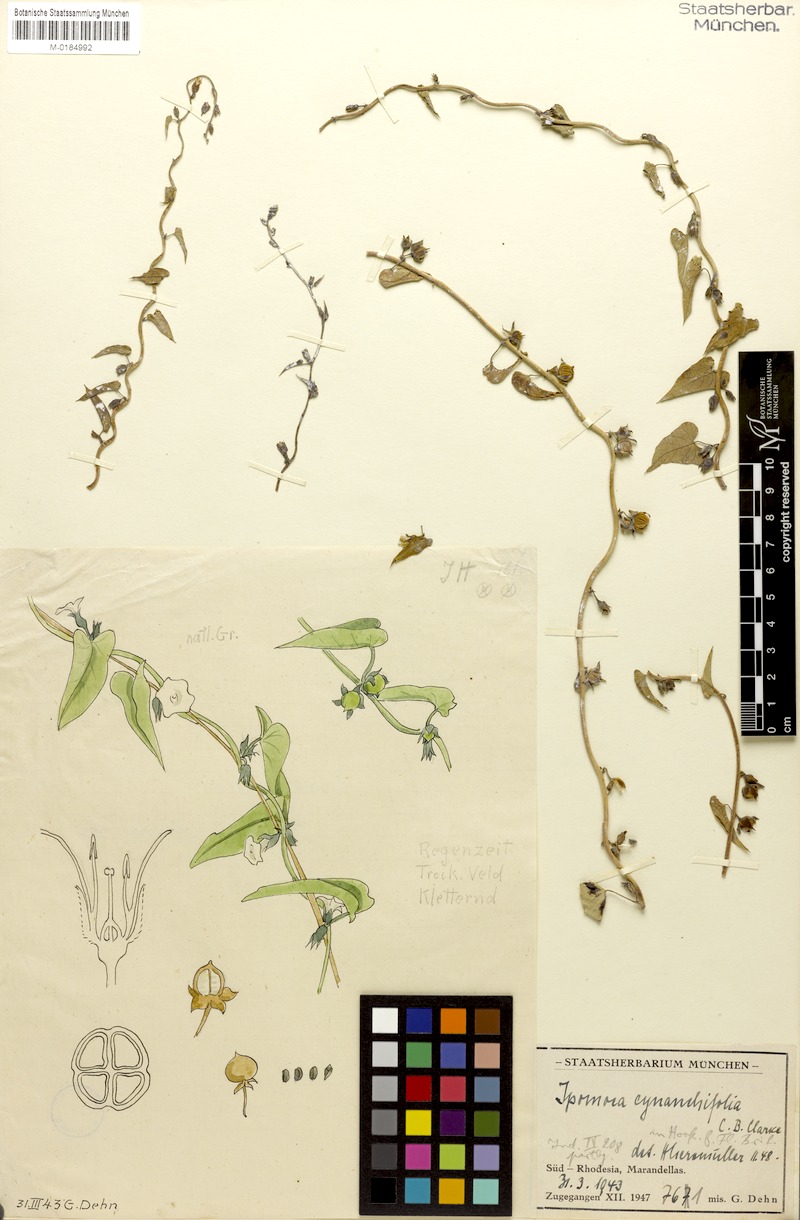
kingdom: Plantae
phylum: Tracheophyta
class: Magnoliopsida
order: Solanales
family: Convolvulaceae
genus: Ipomoea
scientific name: Ipomoea biflora
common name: Bellvine
